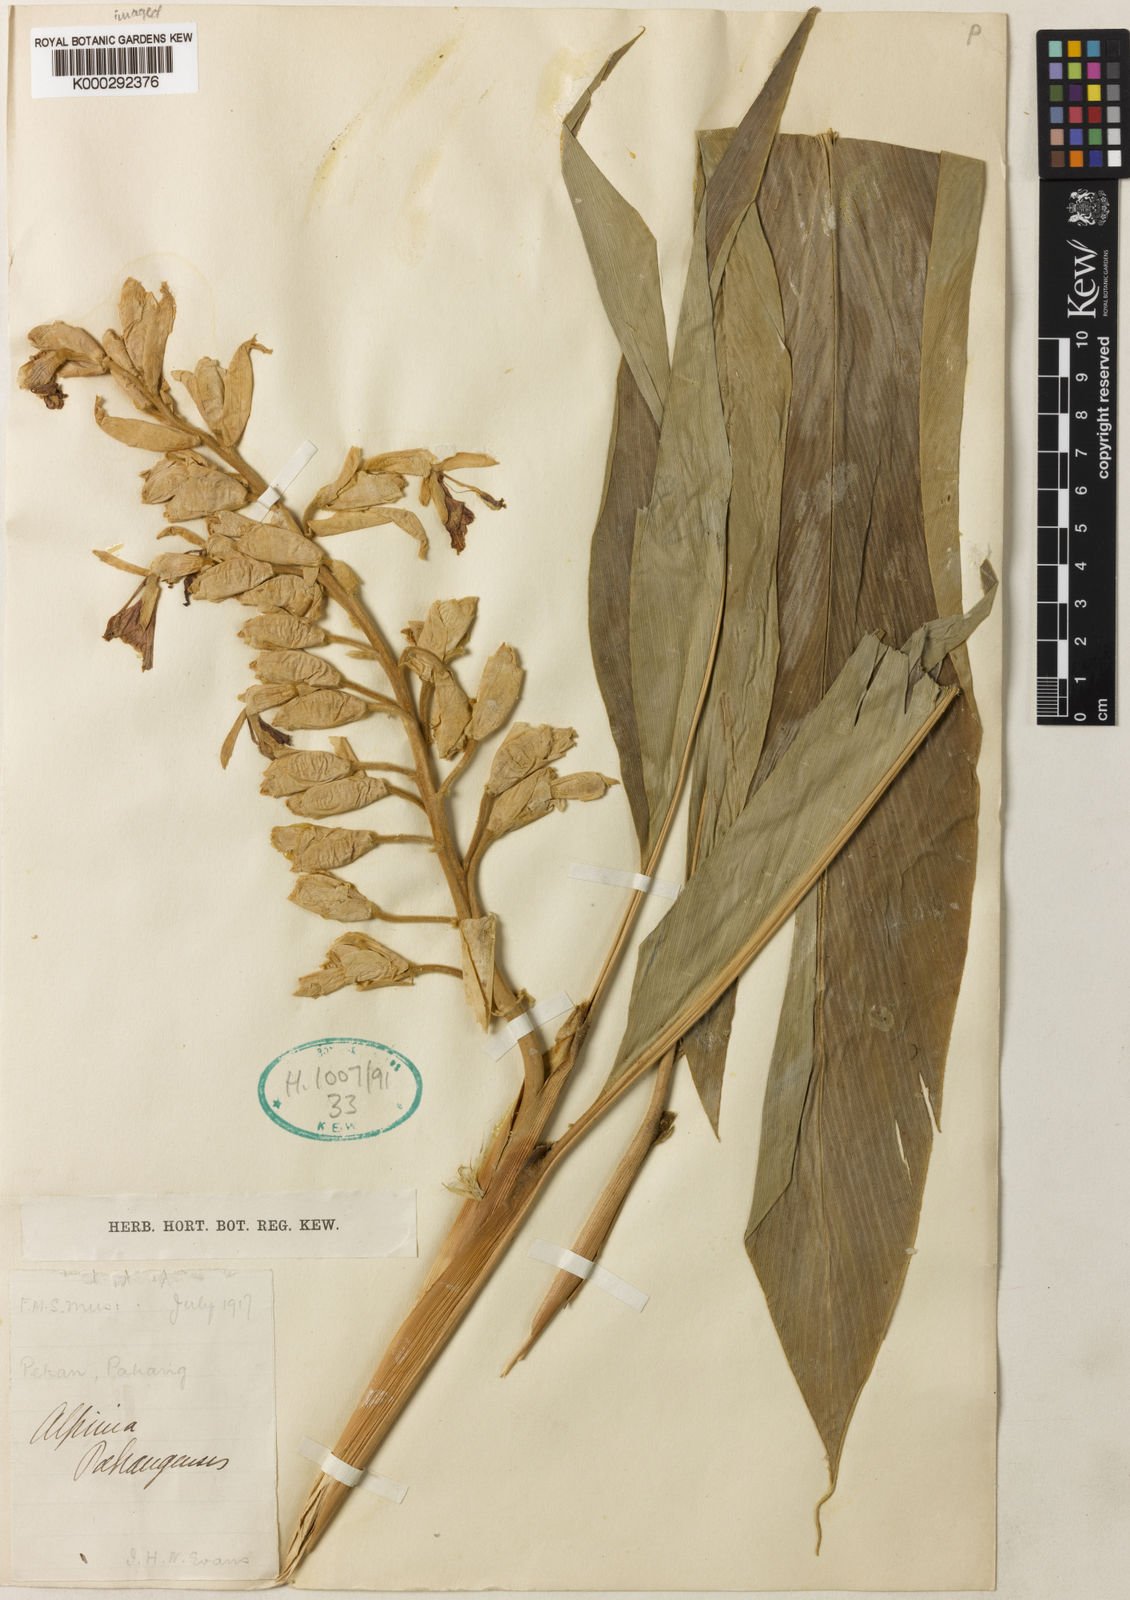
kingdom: Plantae
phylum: Tracheophyta
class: Liliopsida
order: Zingiberales
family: Zingiberaceae
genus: Alpinia
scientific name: Alpinia pahangensis
